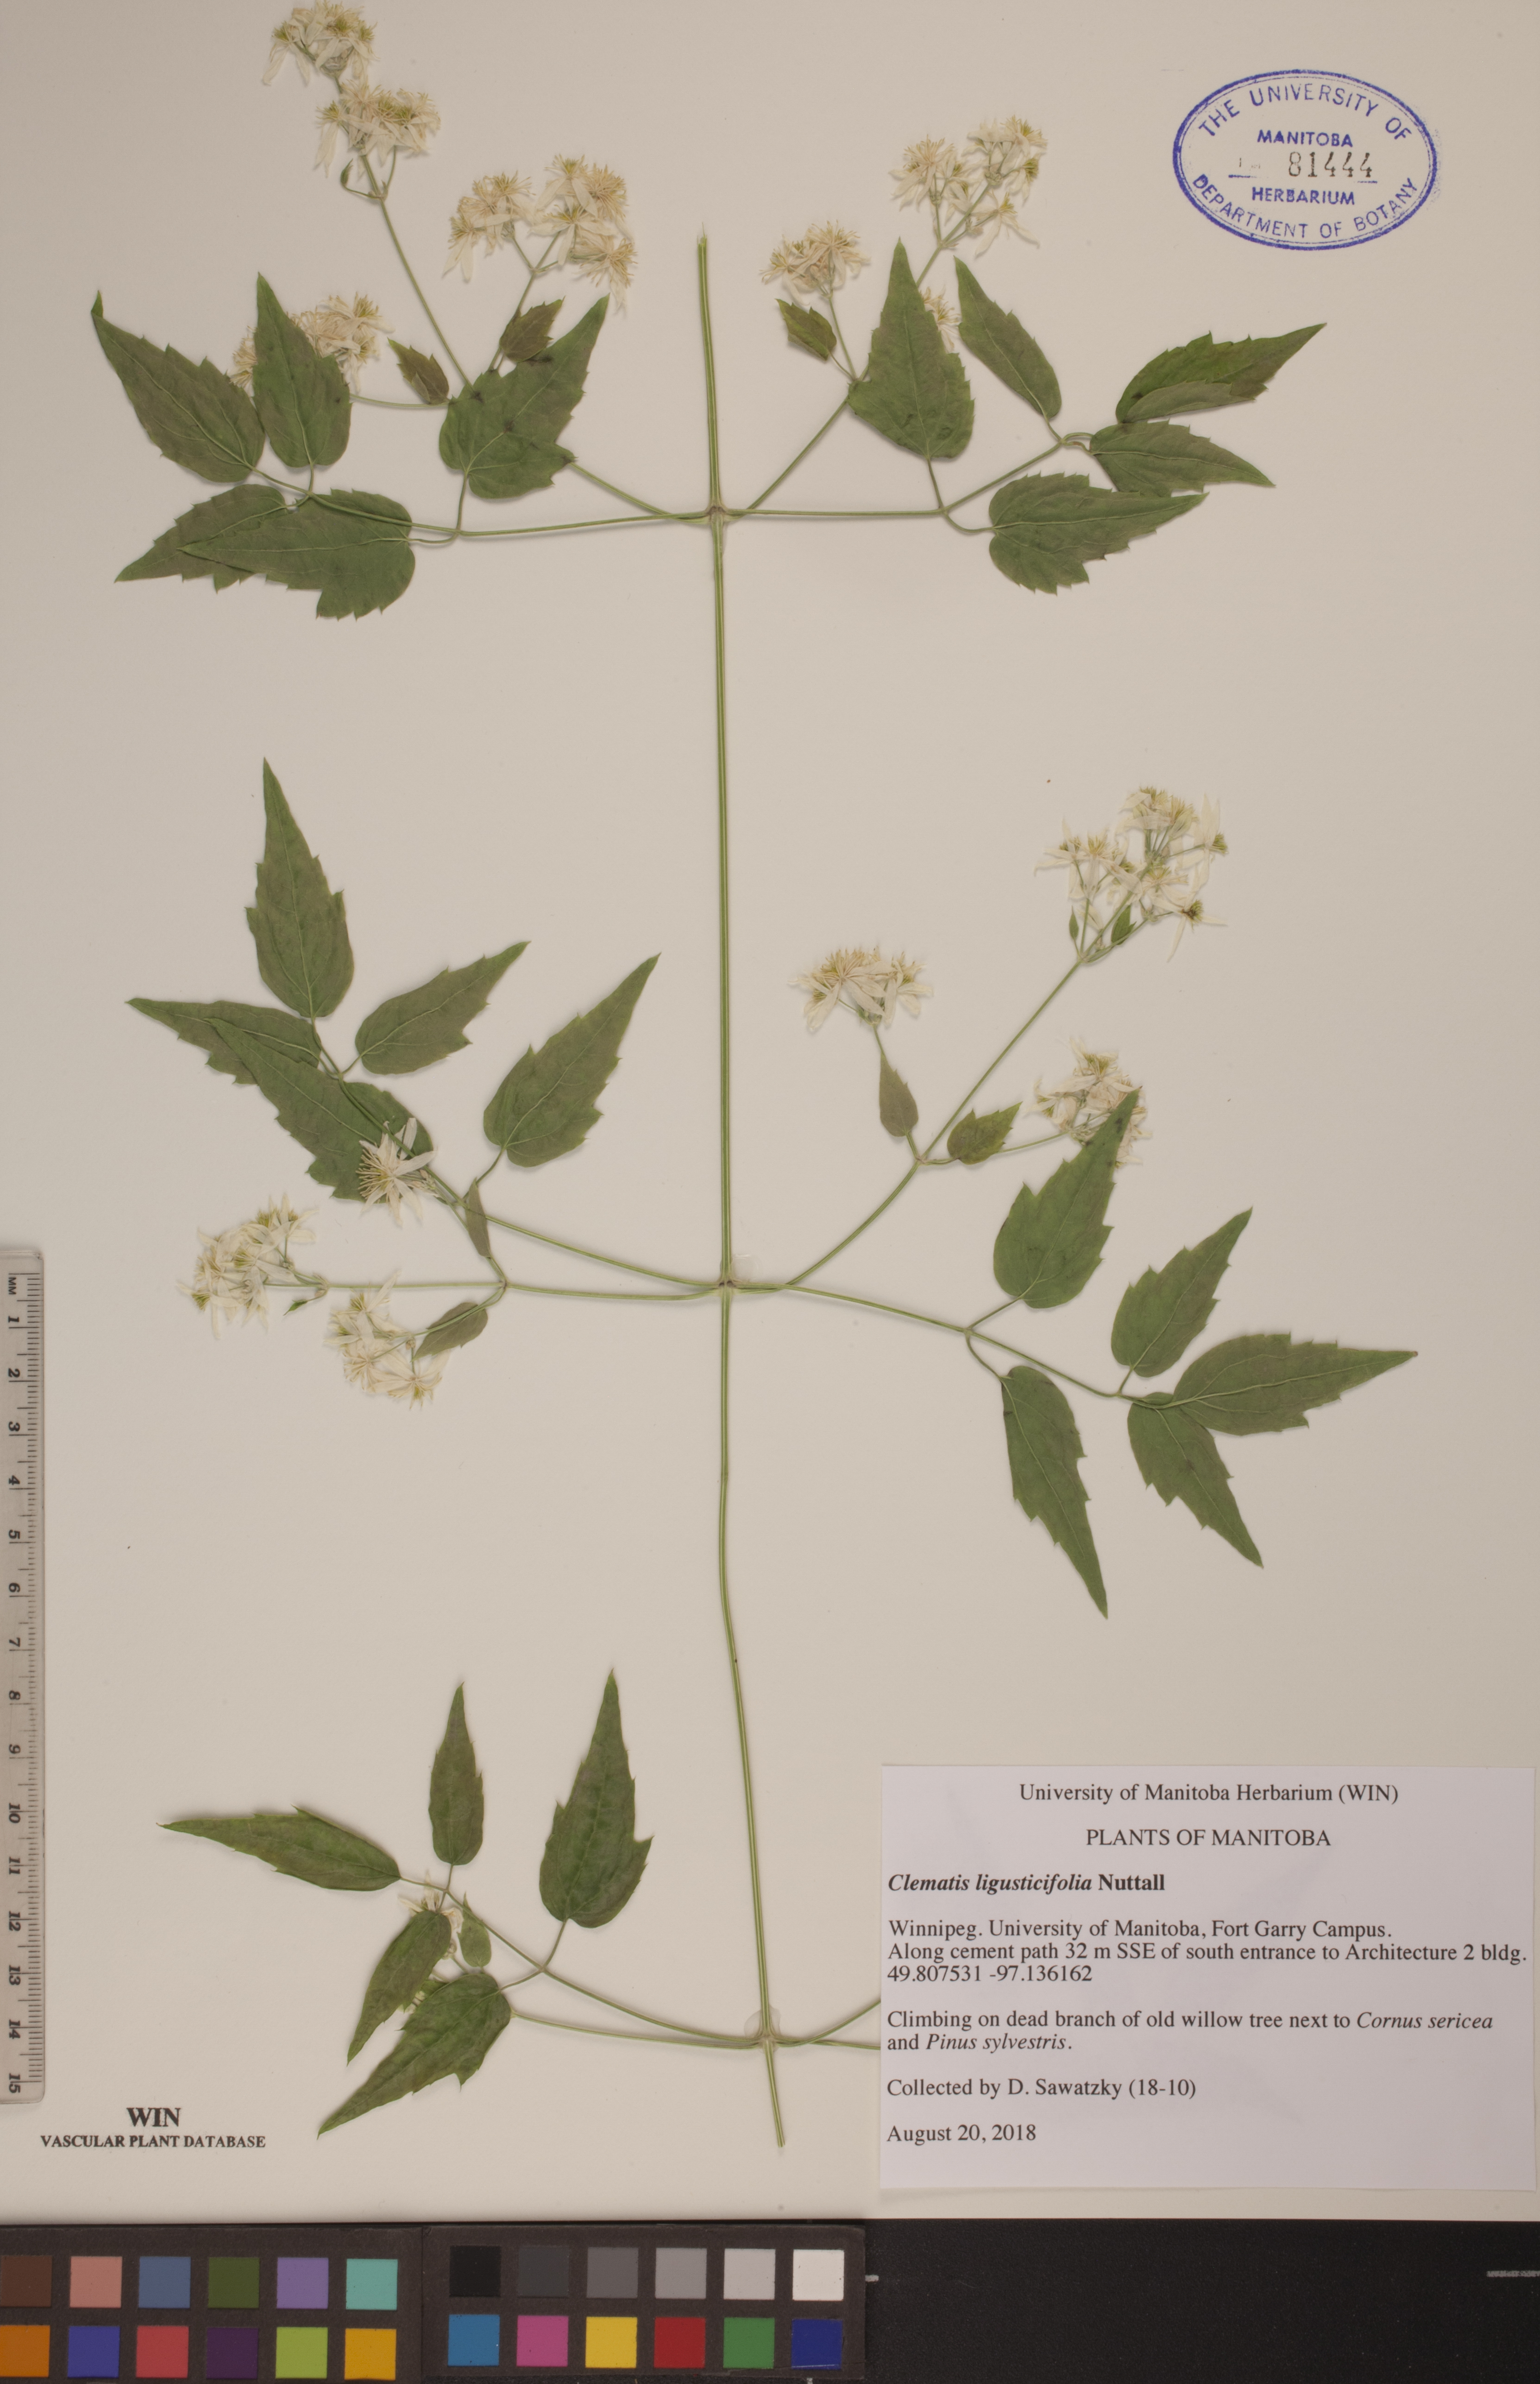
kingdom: Plantae
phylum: Tracheophyta
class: Magnoliopsida
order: Ranunculales
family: Ranunculaceae
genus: Clematis
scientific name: Clematis ligusticifolia
